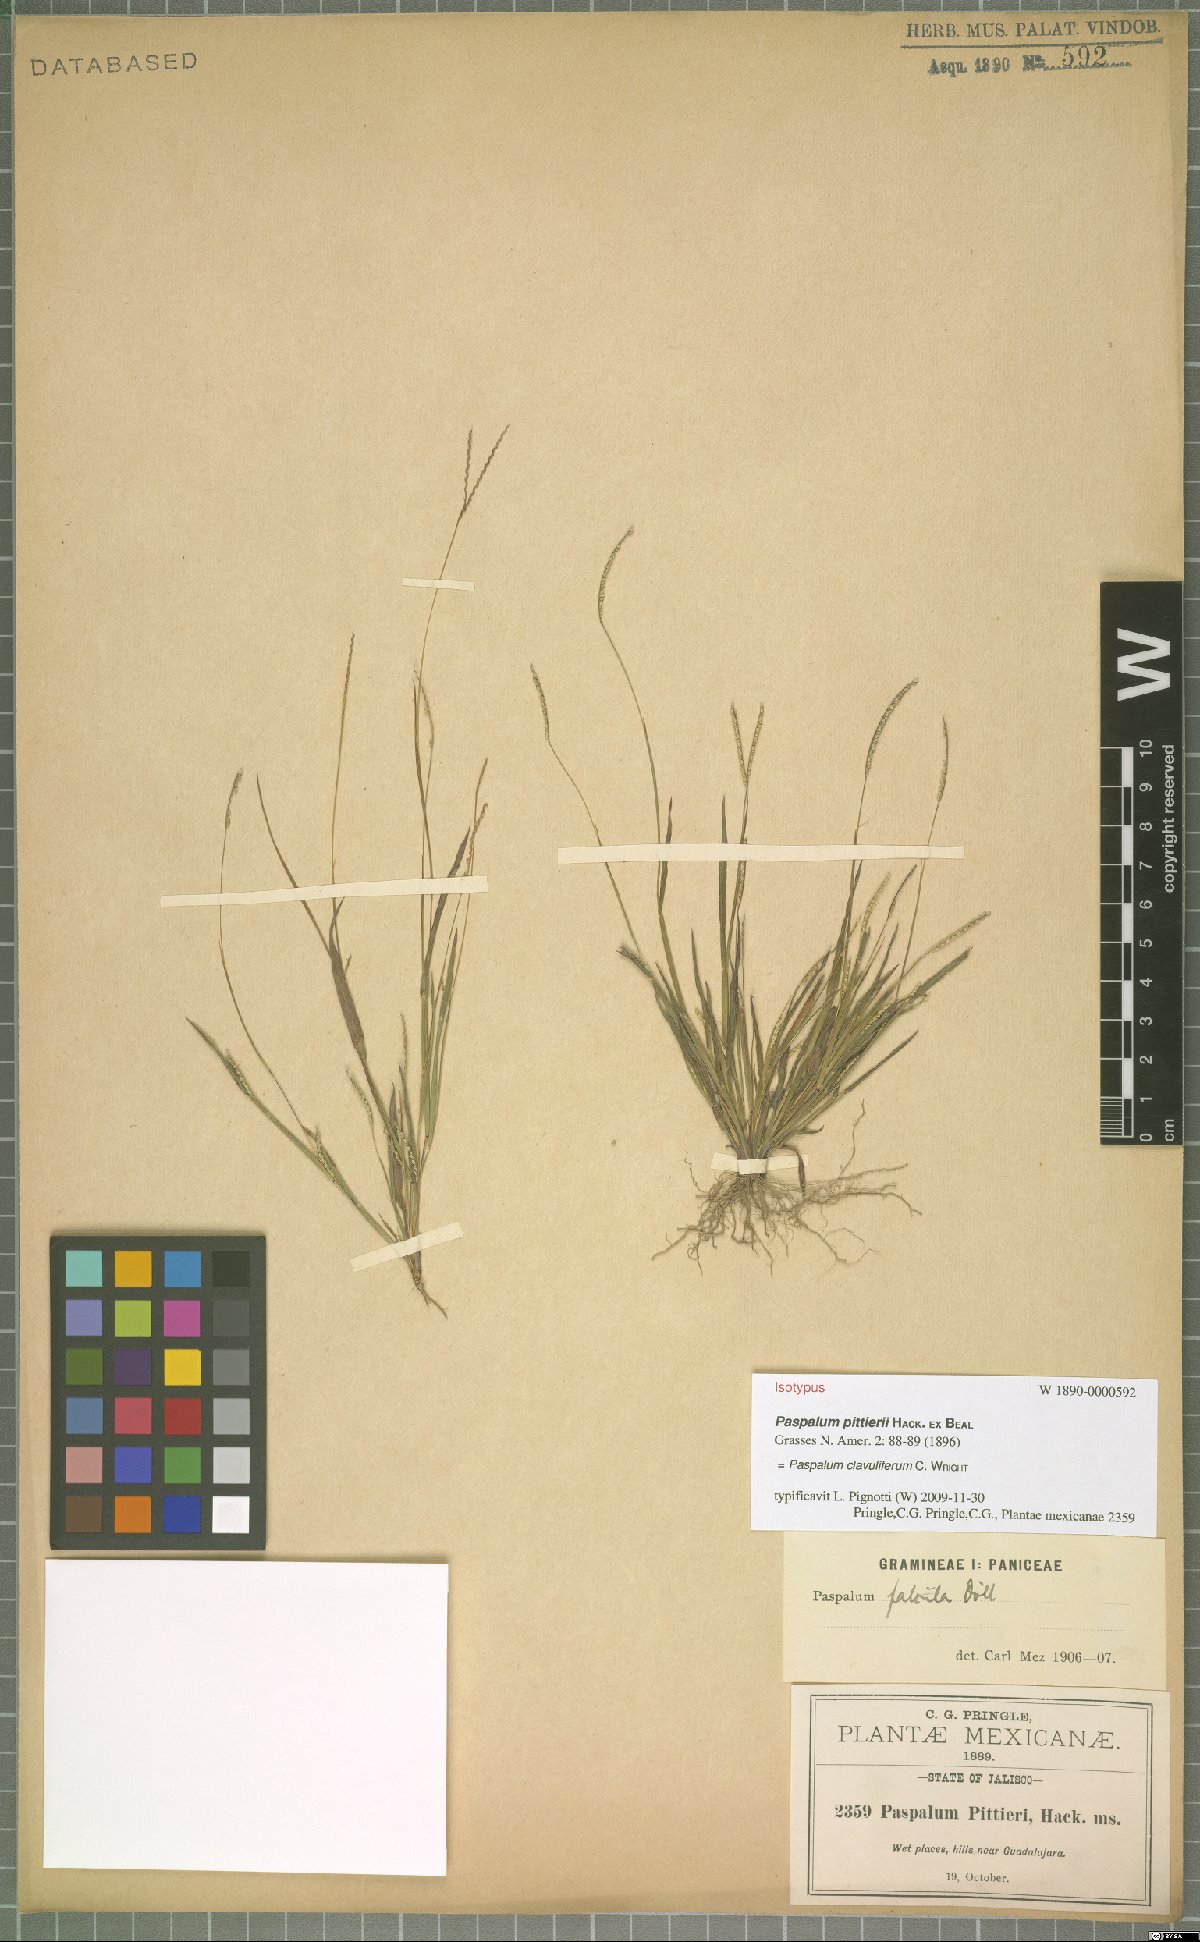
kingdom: Plantae
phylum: Tracheophyta
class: Liliopsida
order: Poales
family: Poaceae
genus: Paspalum
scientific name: Paspalum clavuliferum
